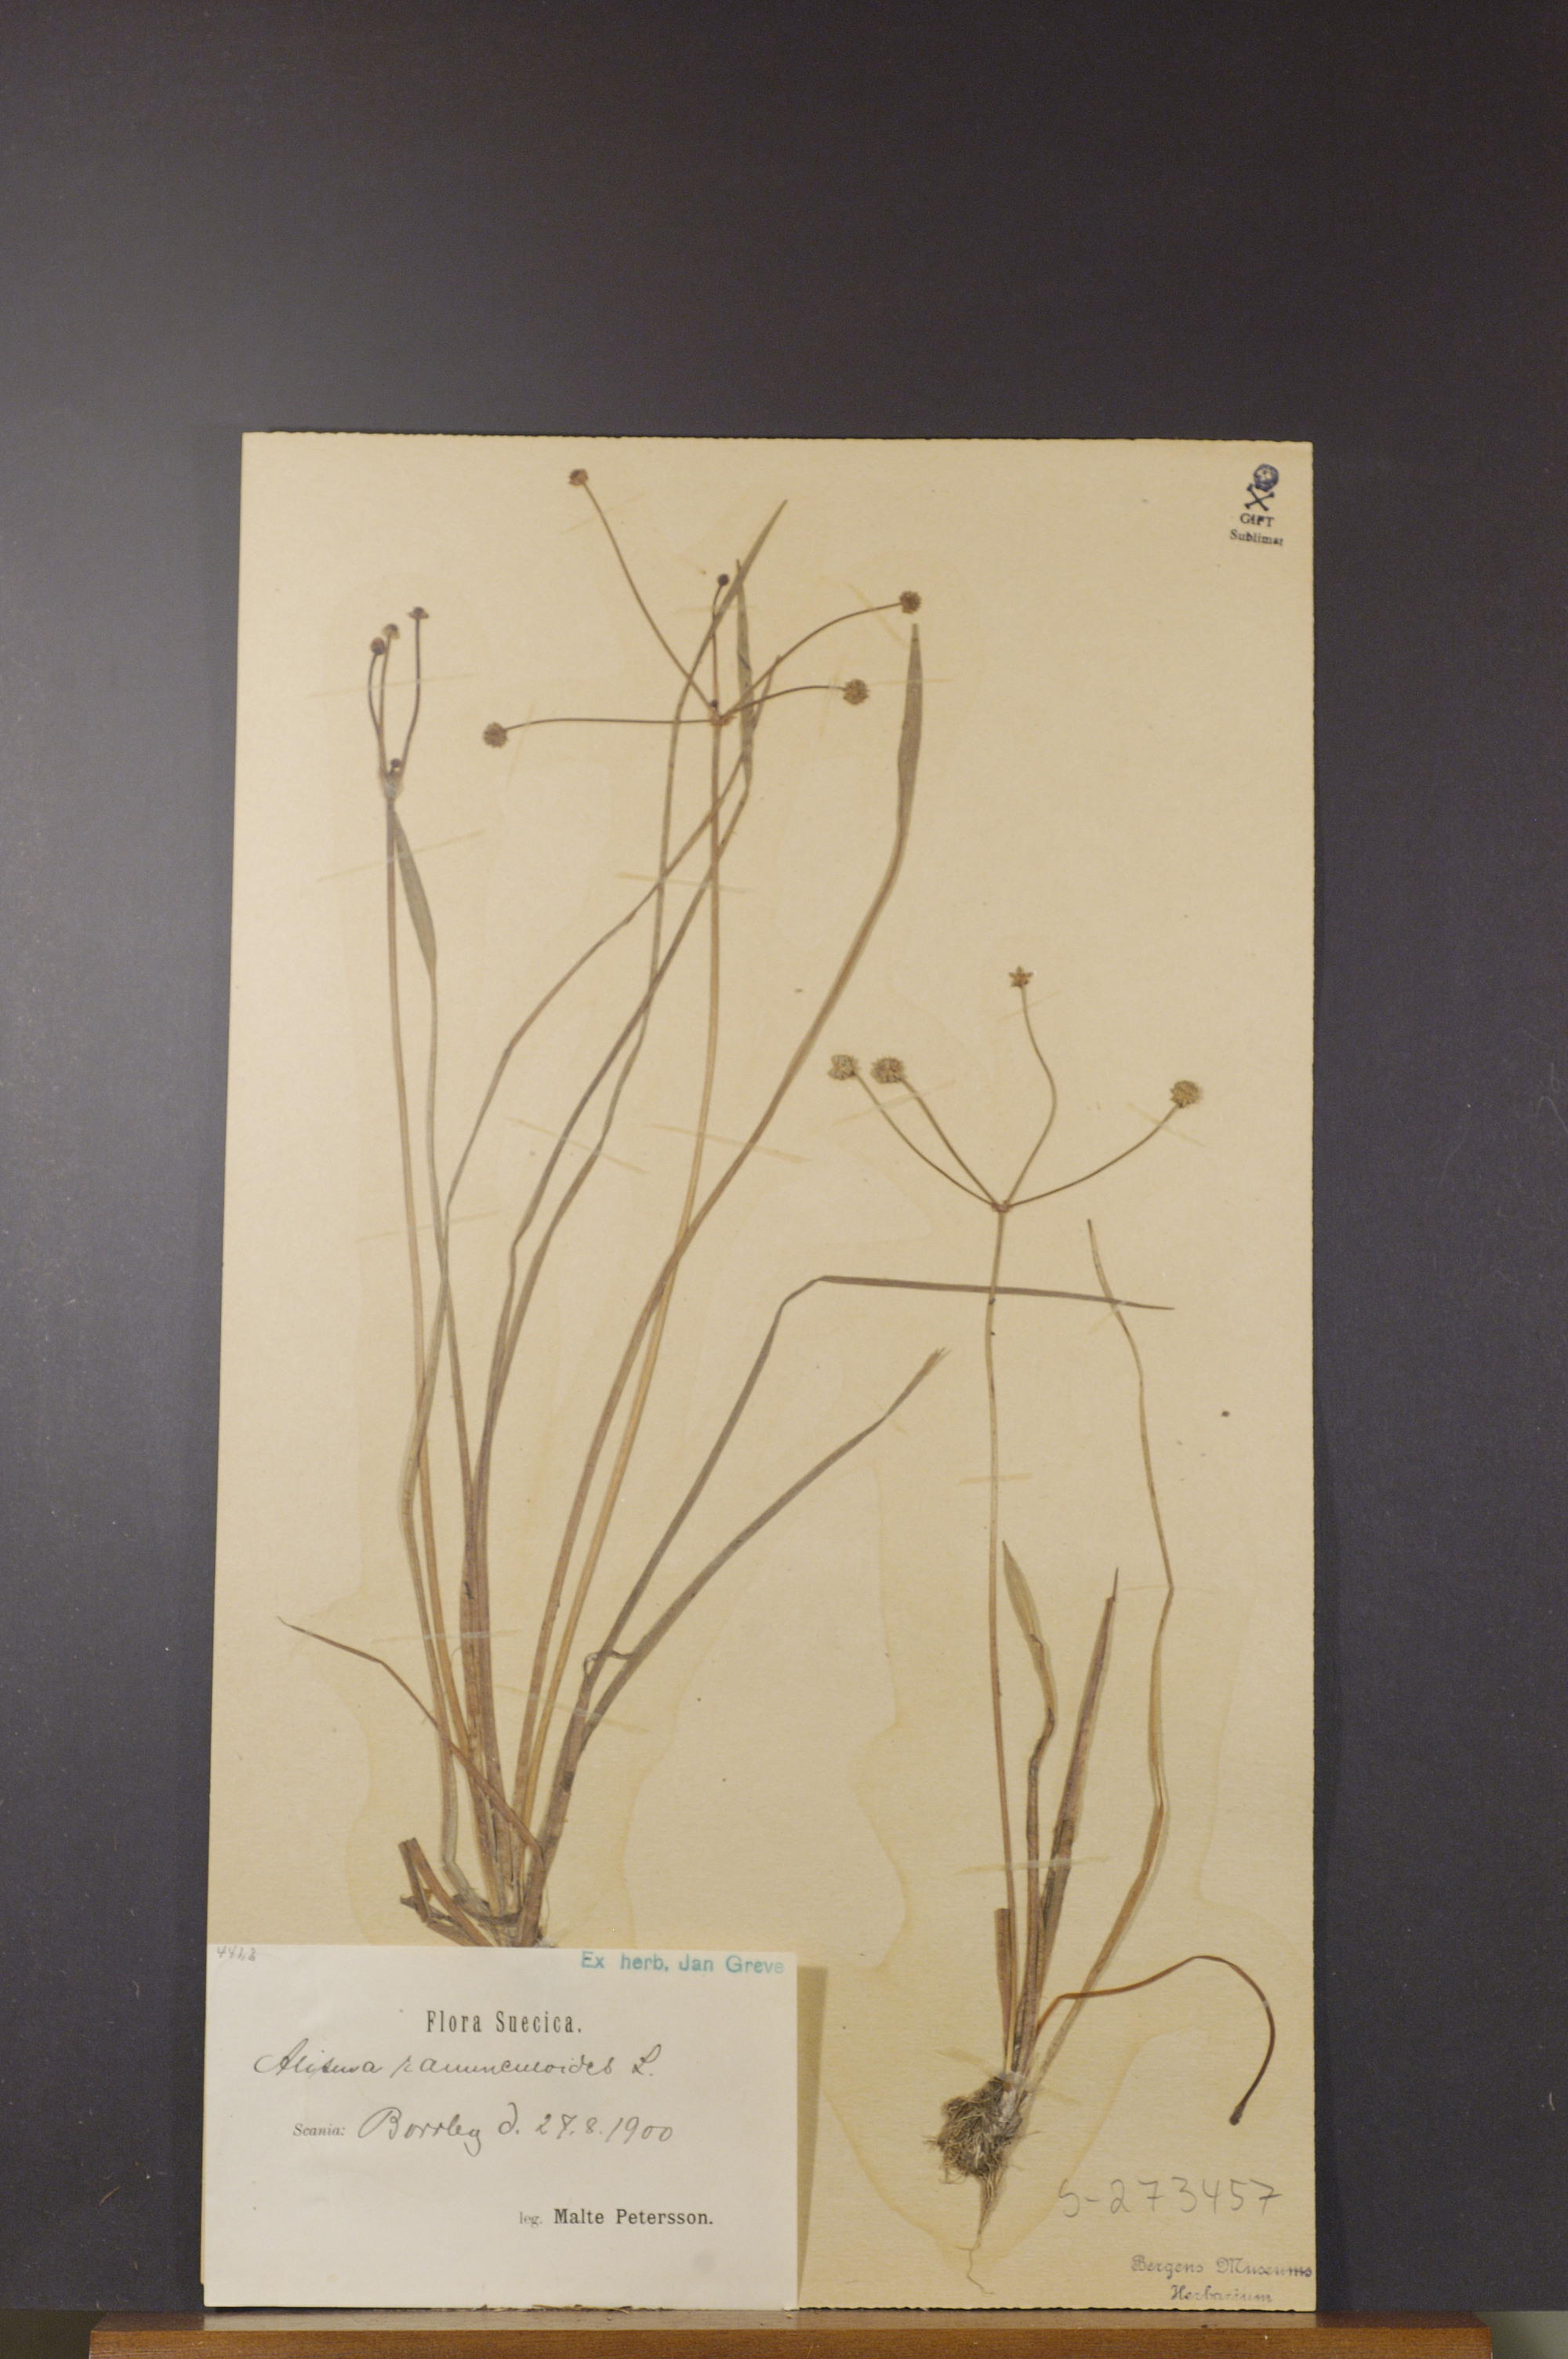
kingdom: Plantae
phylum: Tracheophyta
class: Liliopsida
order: Alismatales
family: Alismataceae
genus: Baldellia
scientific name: Baldellia ranunculoides
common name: Lesser water-plantain
